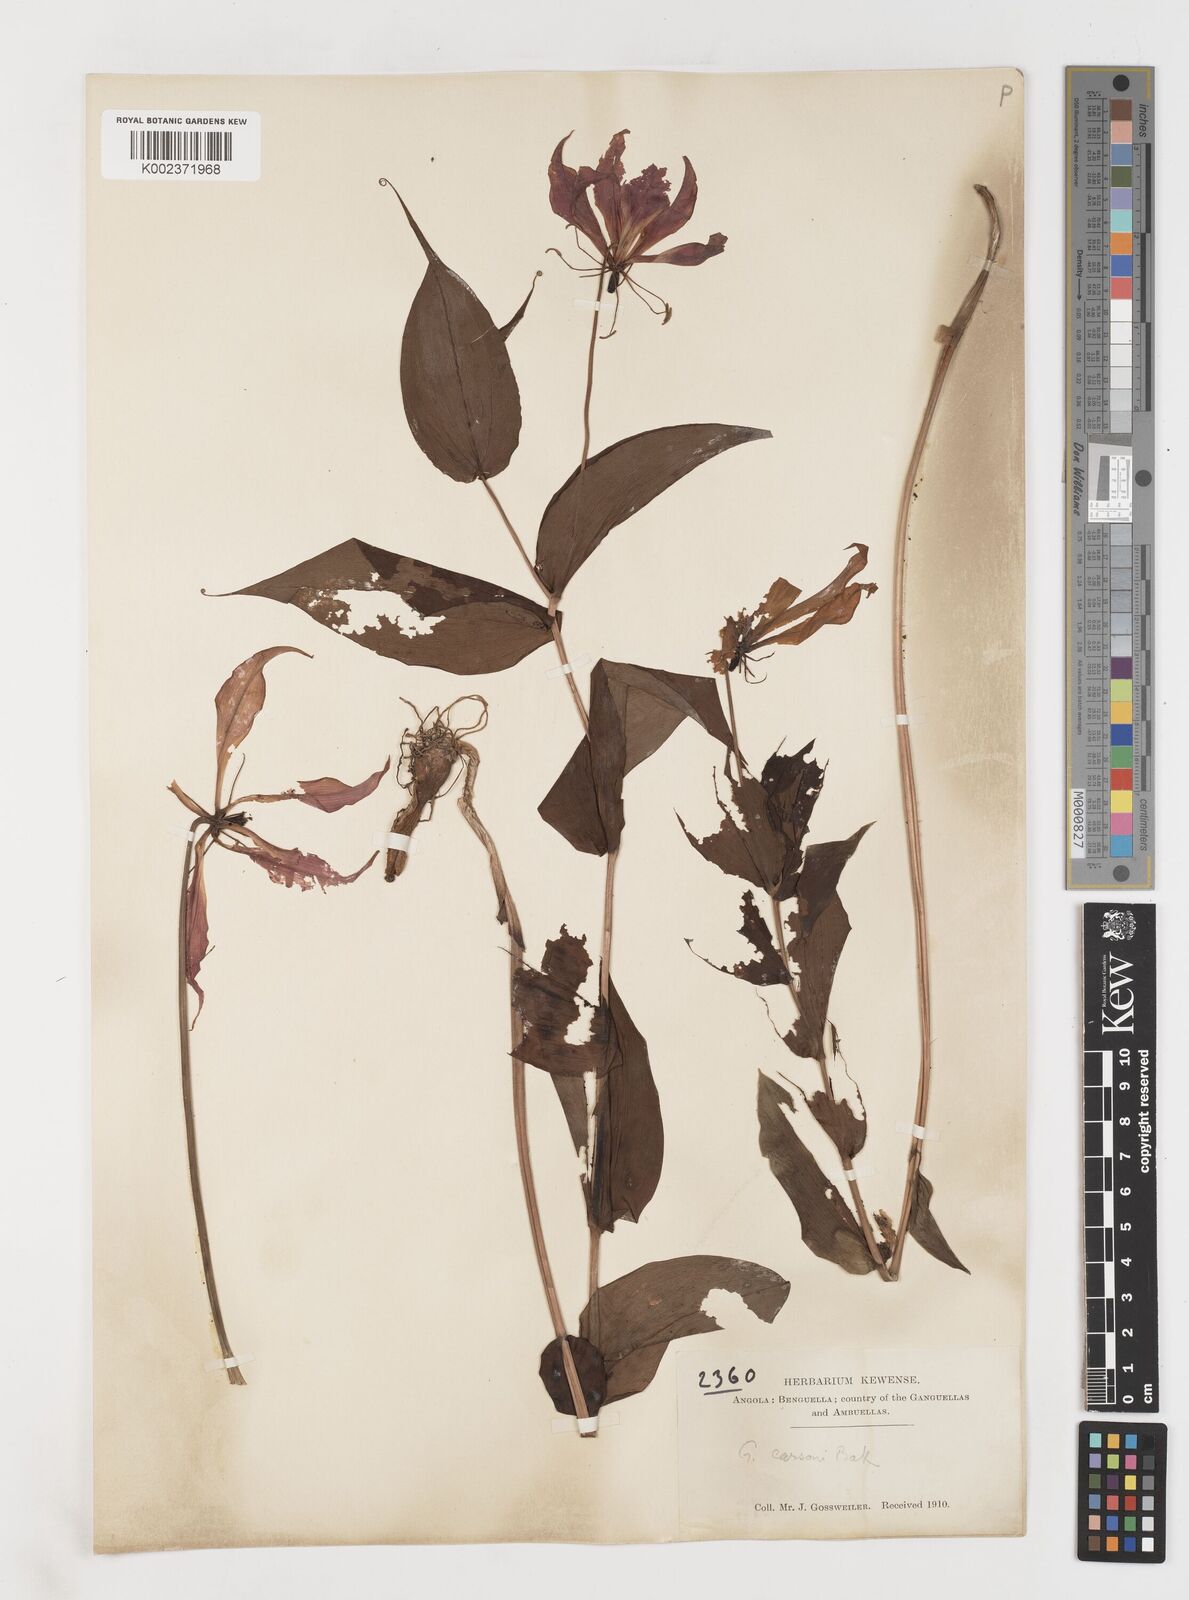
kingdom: Plantae
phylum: Tracheophyta
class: Liliopsida
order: Liliales
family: Colchicaceae
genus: Gloriosa
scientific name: Gloriosa simplex
